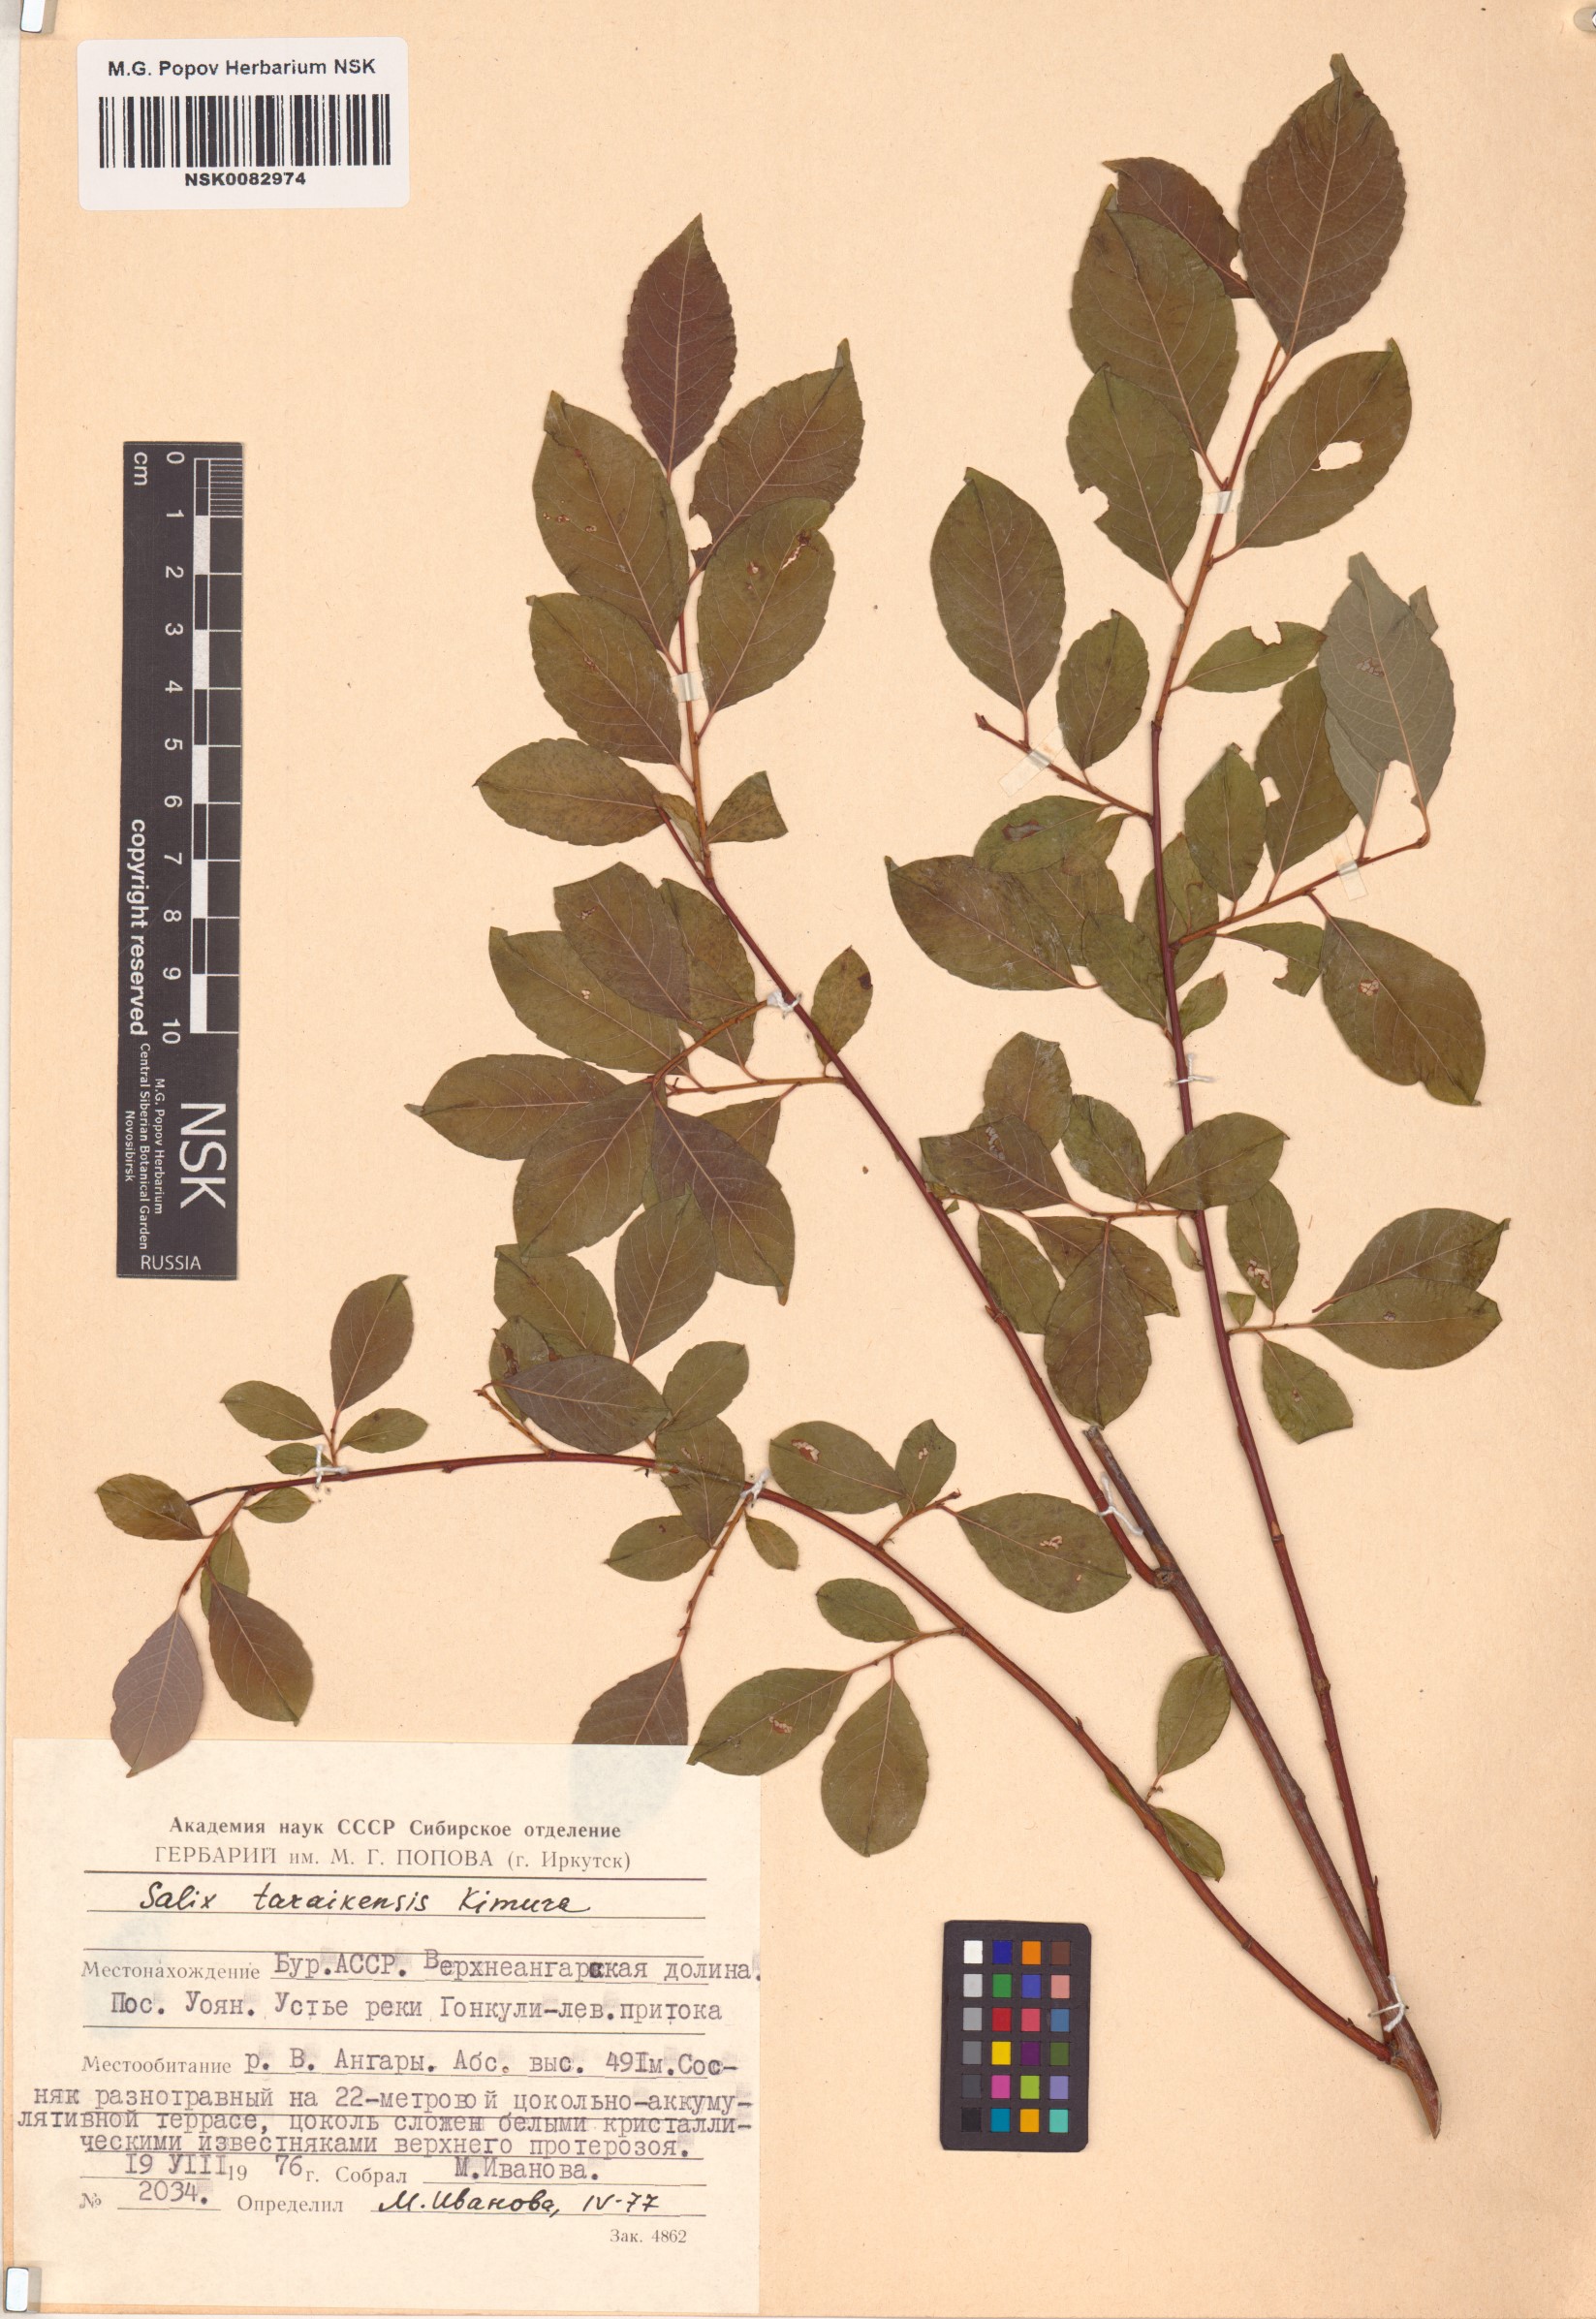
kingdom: Plantae
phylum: Tracheophyta
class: Magnoliopsida
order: Malpighiales
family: Salicaceae
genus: Salix
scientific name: Salix taraikensis
